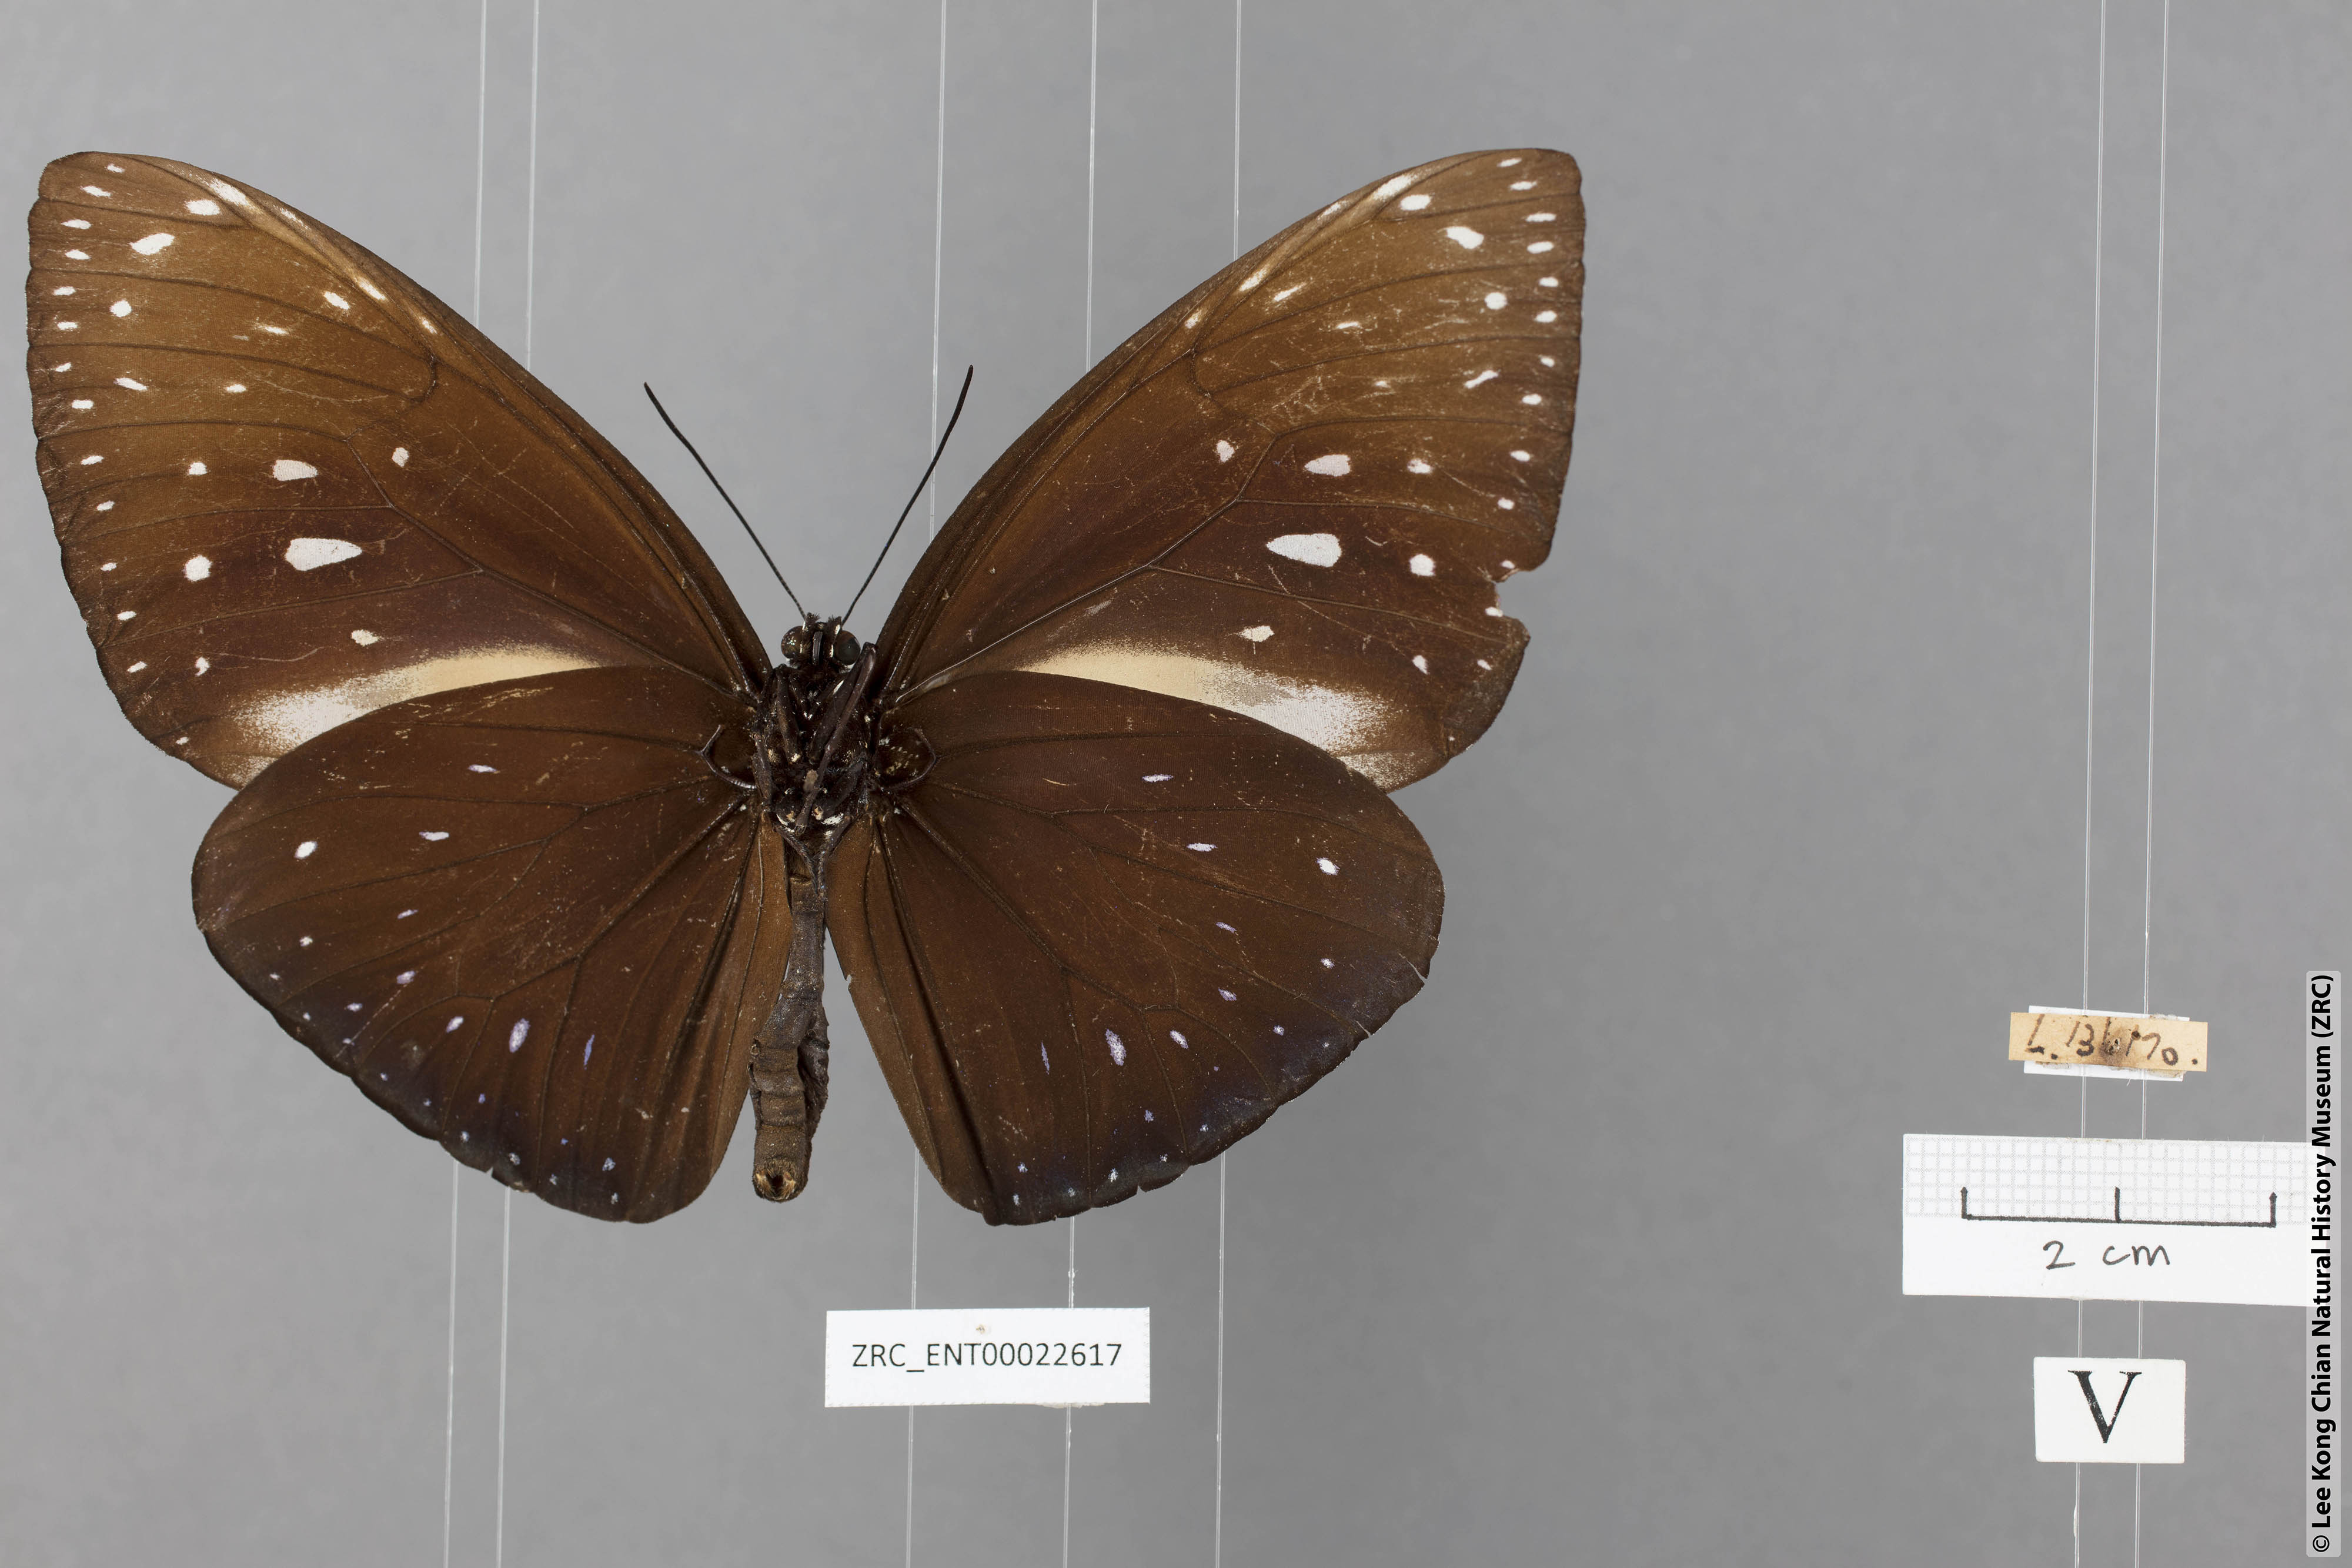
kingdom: Animalia
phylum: Arthropoda
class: Insecta
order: Lepidoptera
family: Nymphalidae
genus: Euploea
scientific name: Euploea phaenareta
